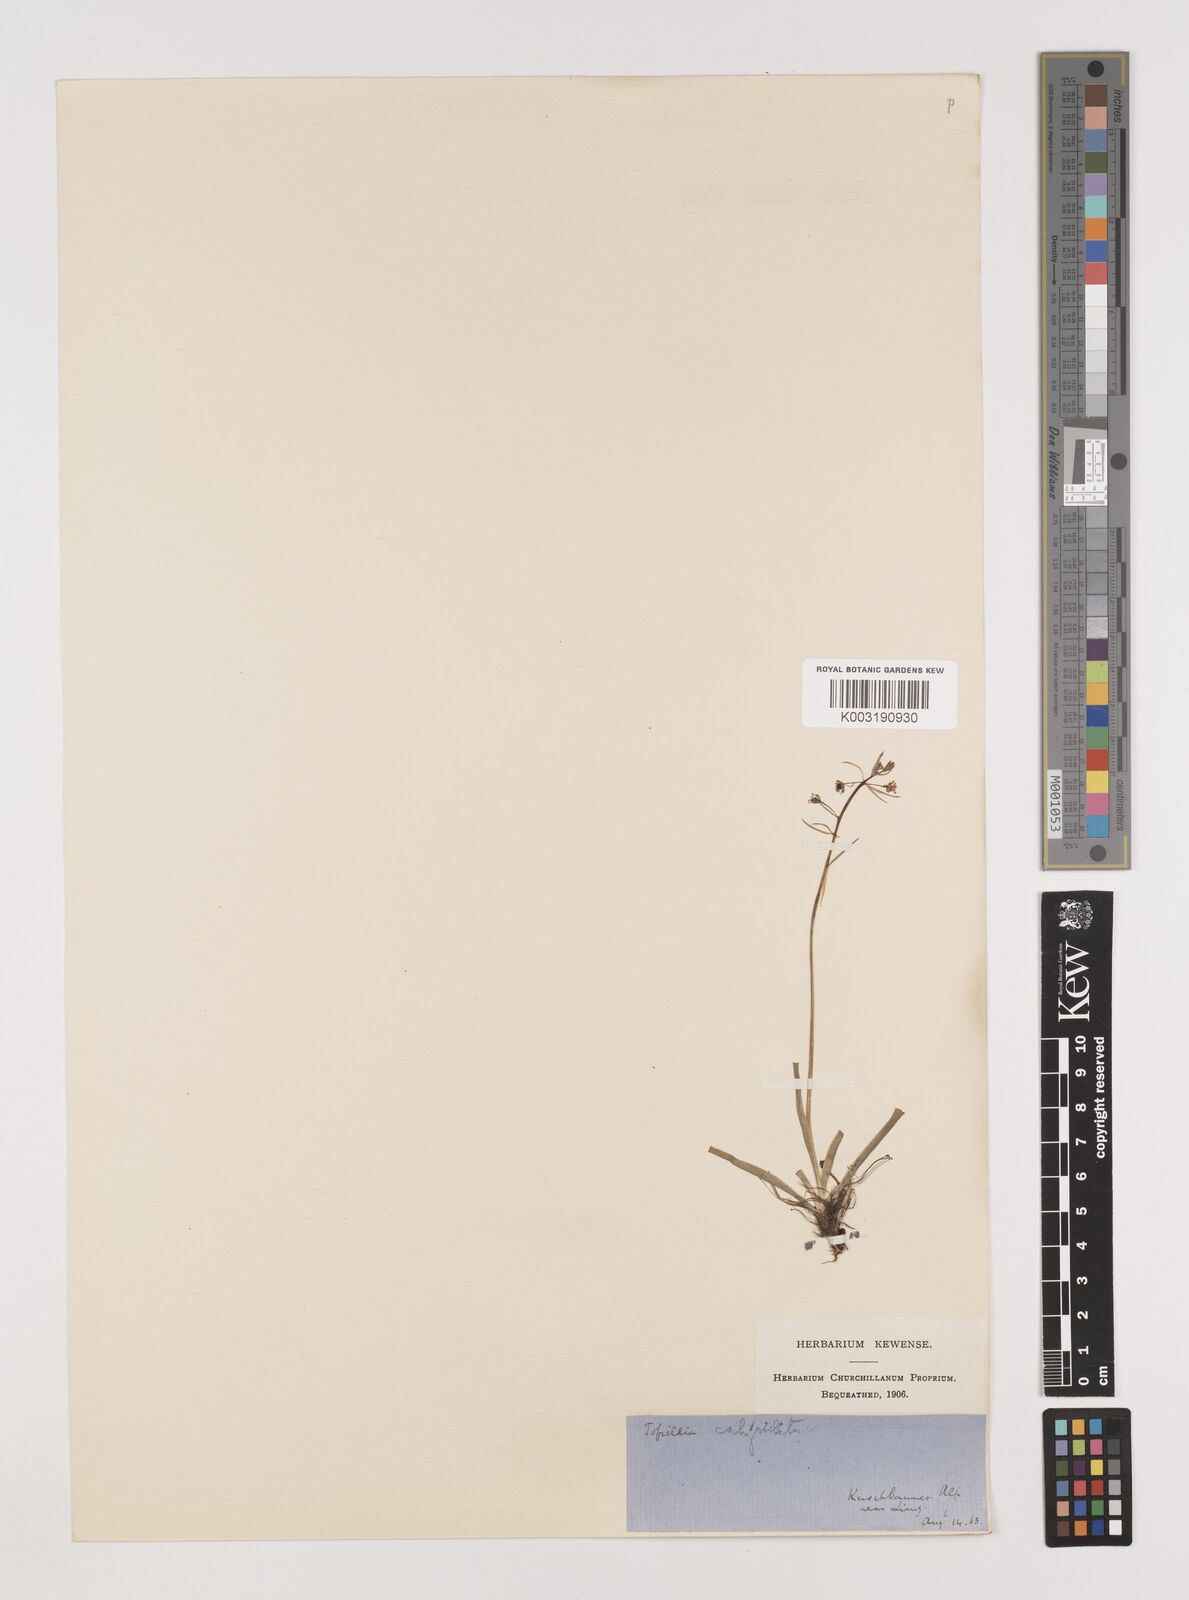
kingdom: Plantae
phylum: Tracheophyta
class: Liliopsida
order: Alismatales
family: Tofieldiaceae
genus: Tofieldia
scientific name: Tofieldia calyculata
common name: German-asphodel
